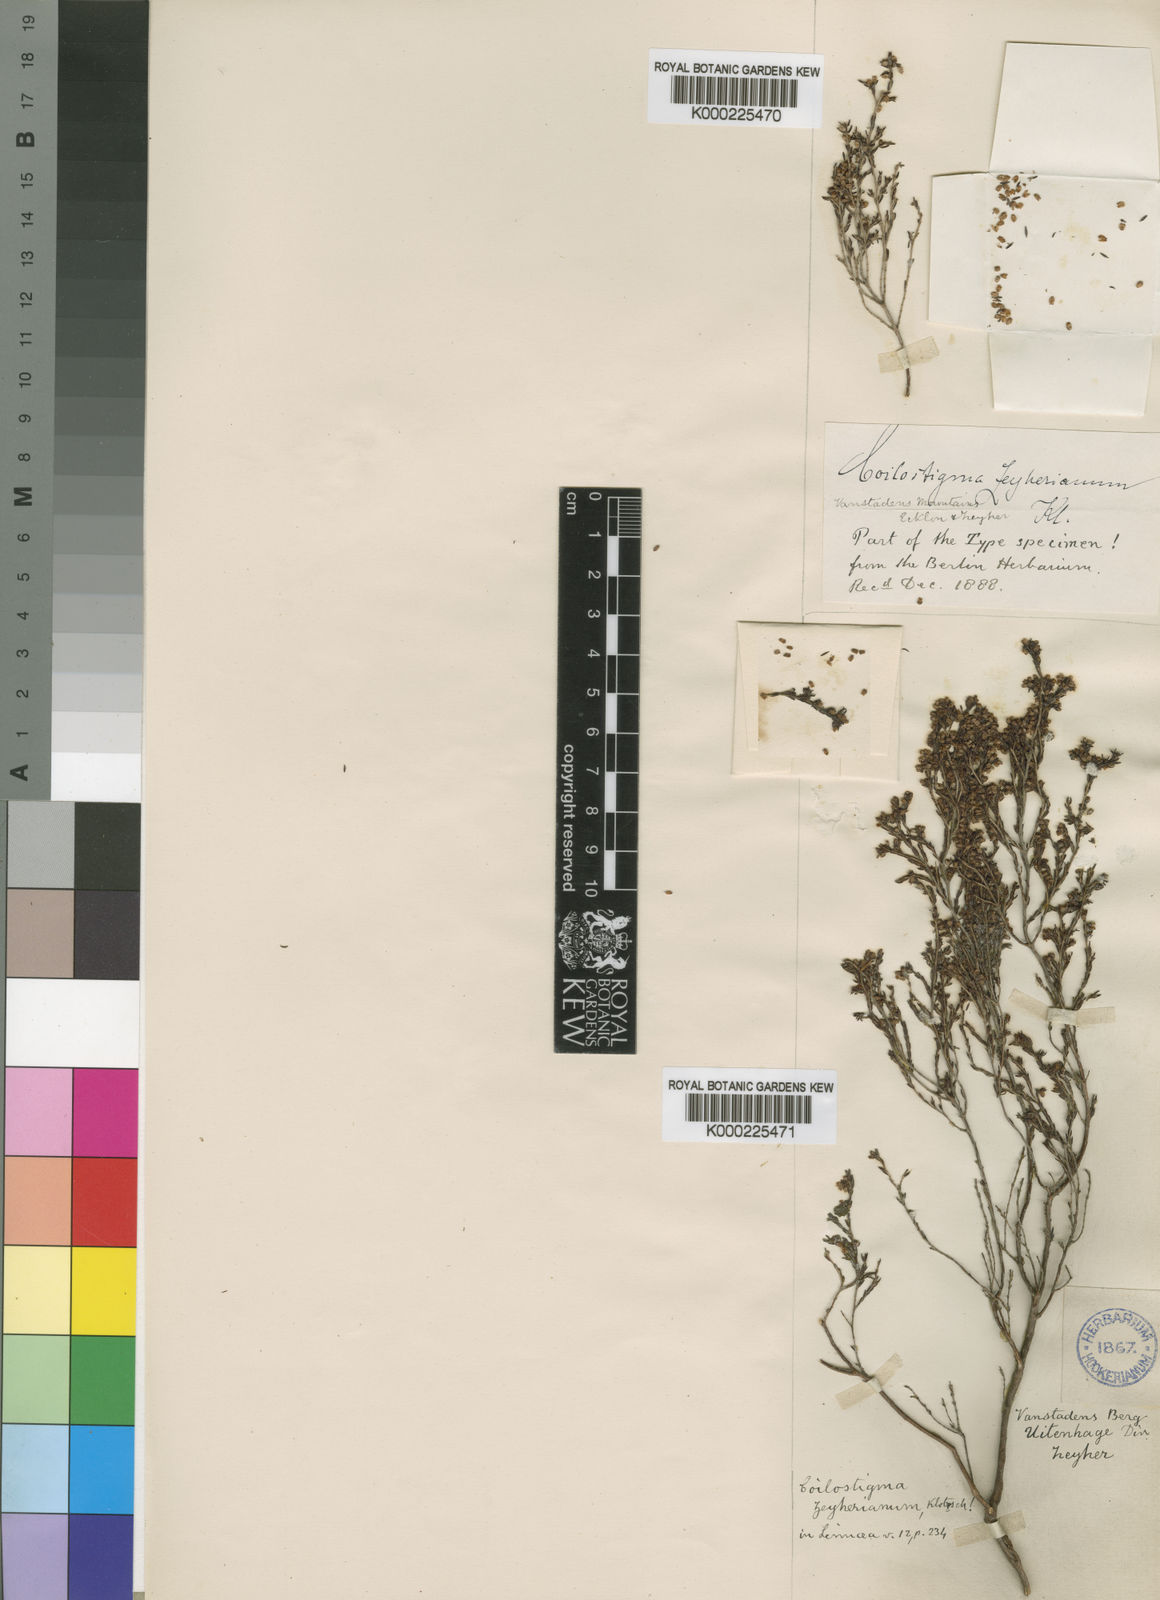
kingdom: Plantae
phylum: Tracheophyta
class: Magnoliopsida
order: Ericales
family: Ericaceae
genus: Erica
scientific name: Erica zeyheriana
